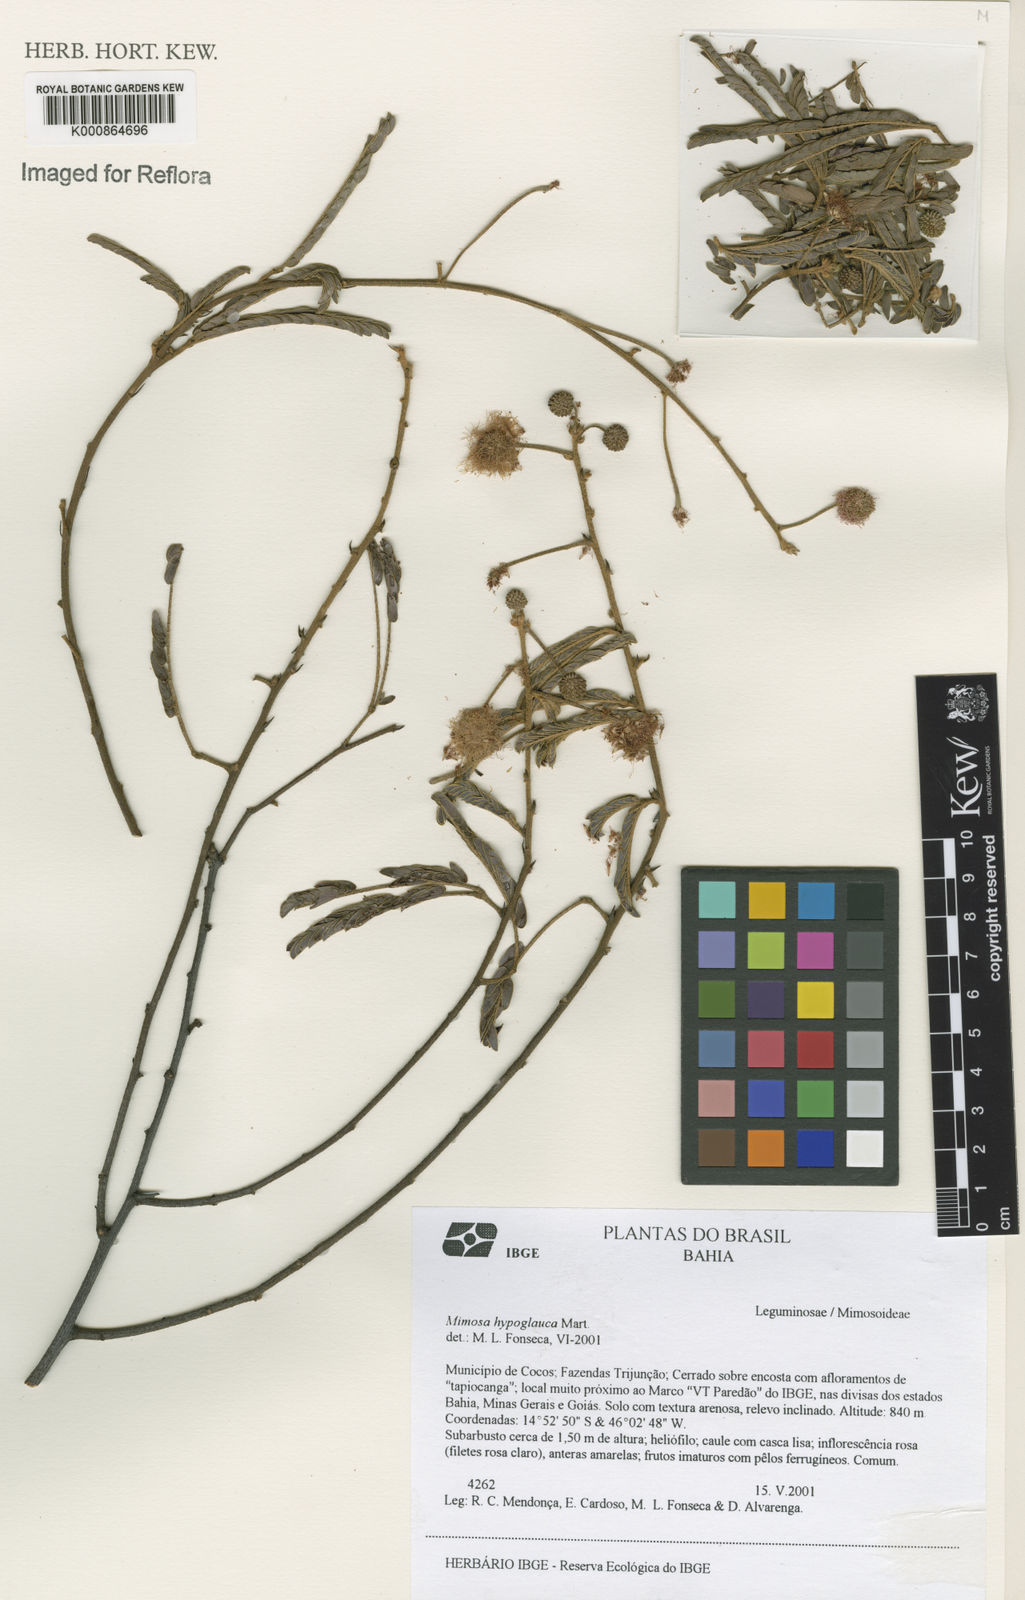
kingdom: Plantae
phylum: Tracheophyta
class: Magnoliopsida
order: Fabales
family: Fabaceae
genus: Mimosa
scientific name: Mimosa hypoglauca
